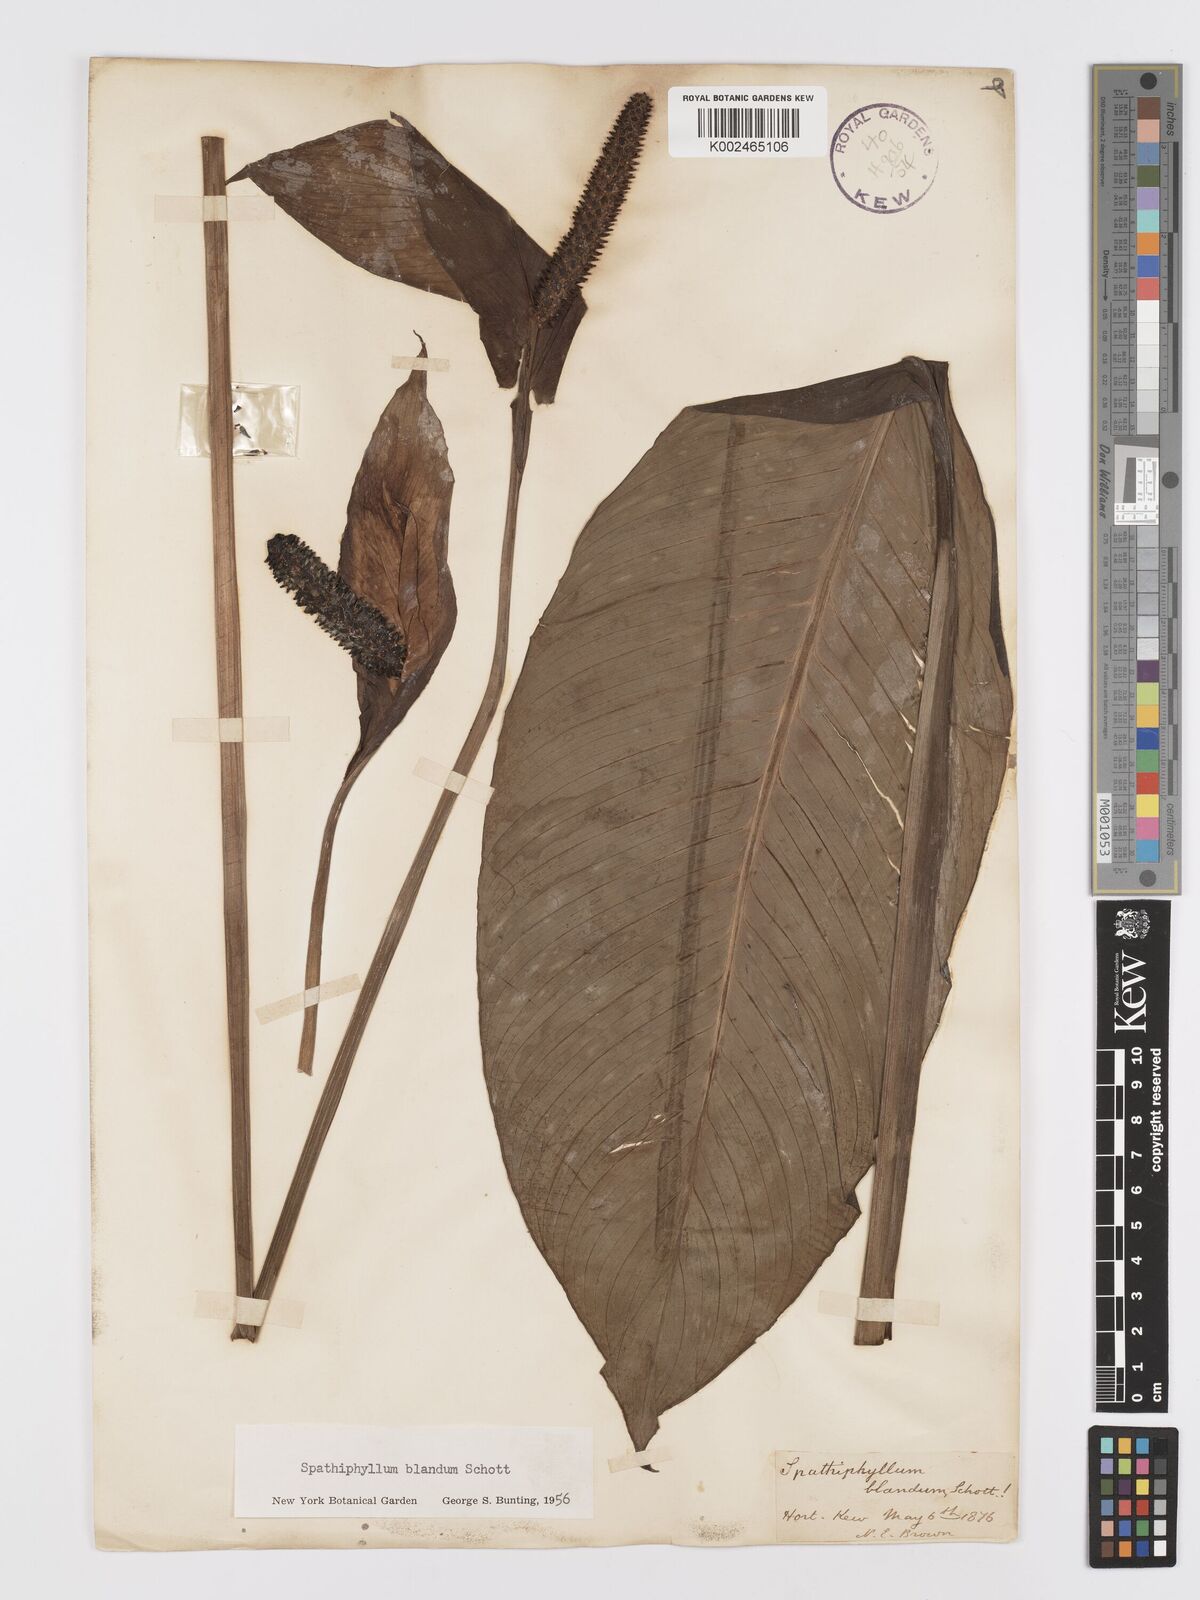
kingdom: Plantae
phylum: Tracheophyta
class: Liliopsida
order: Alismatales
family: Araceae
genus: Spathiphyllum
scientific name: Spathiphyllum blandum
